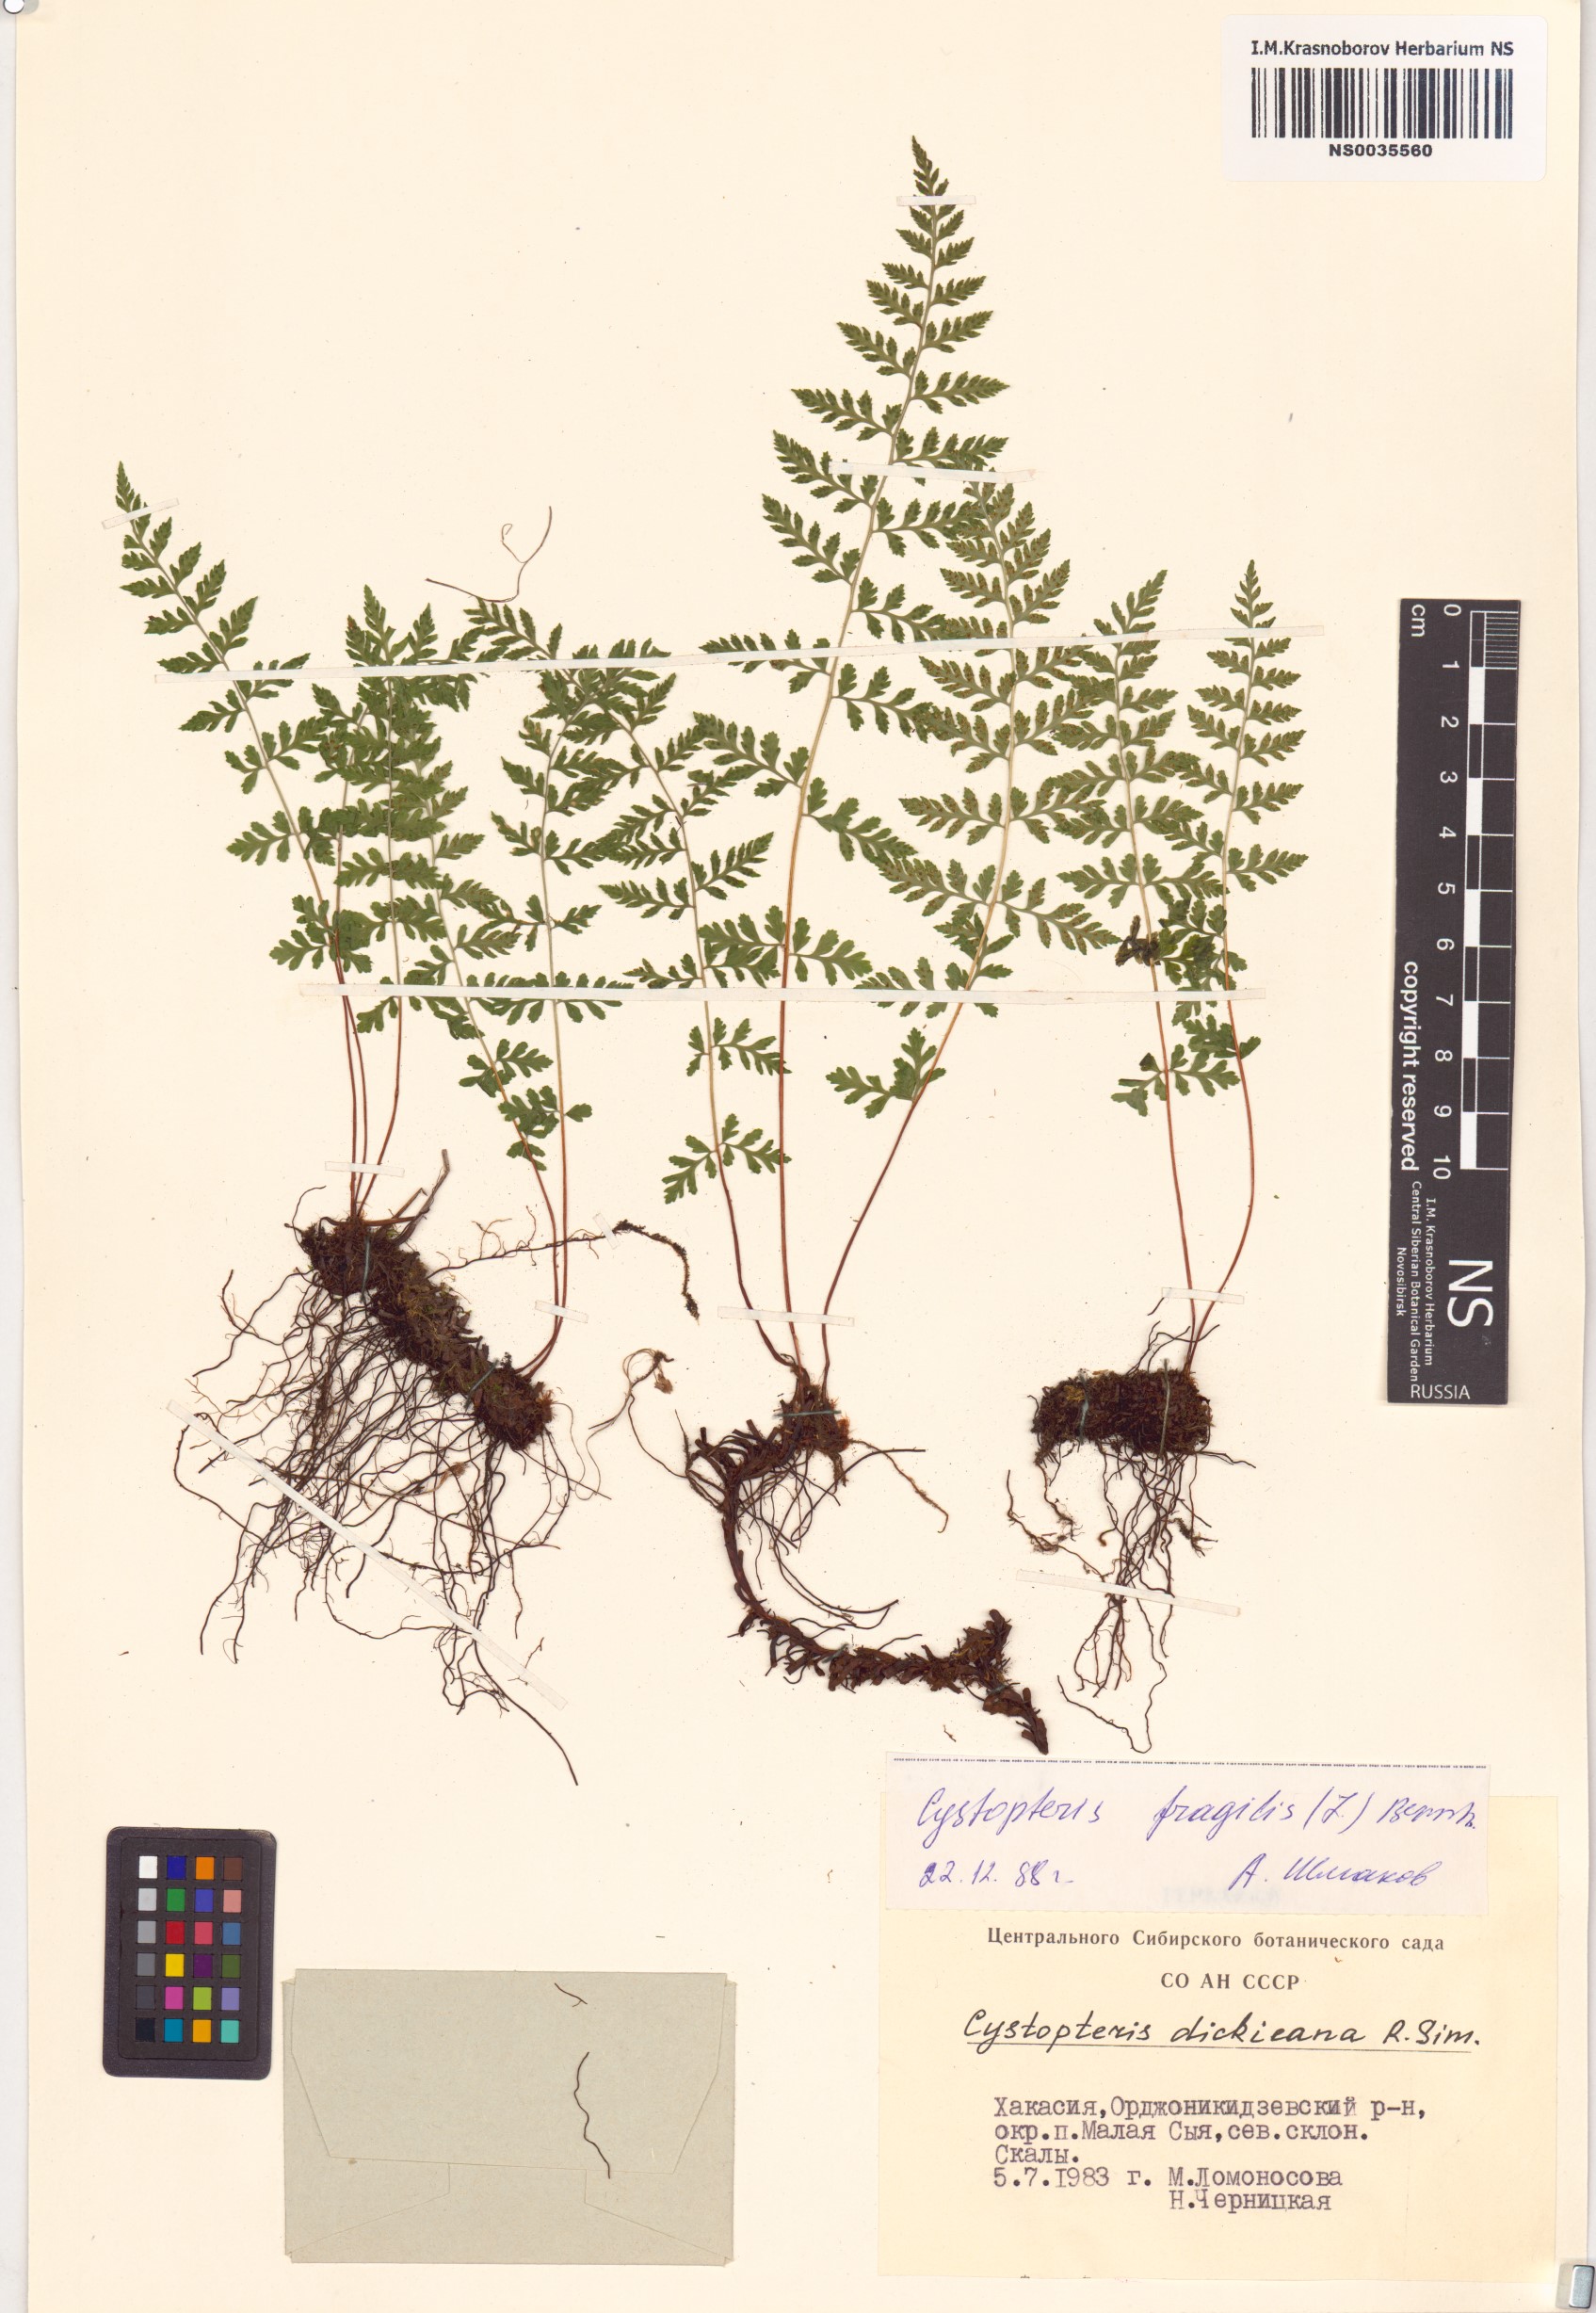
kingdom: Plantae
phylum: Tracheophyta
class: Polypodiopsida
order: Polypodiales
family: Cystopteridaceae
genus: Cystopteris
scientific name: Cystopteris fragilis
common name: Brittle bladder fern
